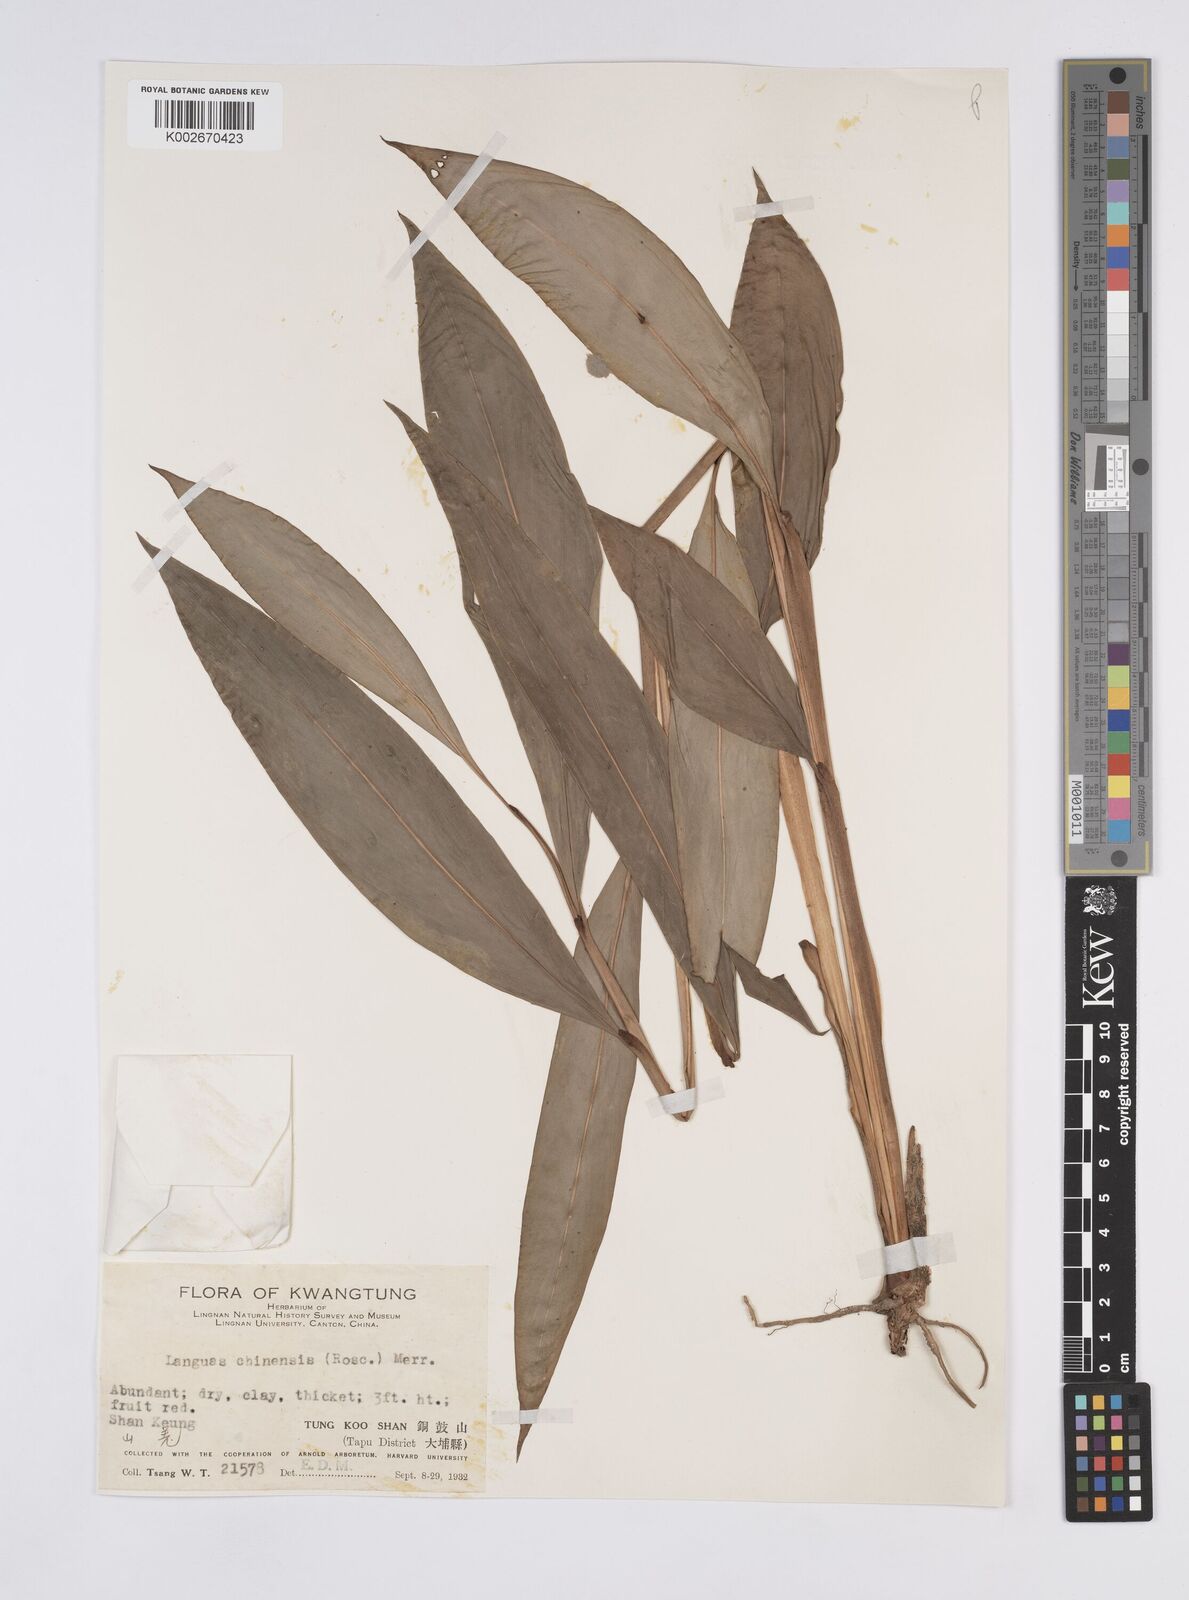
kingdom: Plantae
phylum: Tracheophyta
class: Liliopsida
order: Zingiberales
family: Zingiberaceae
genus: Alpinia
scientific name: Alpinia chinensis
